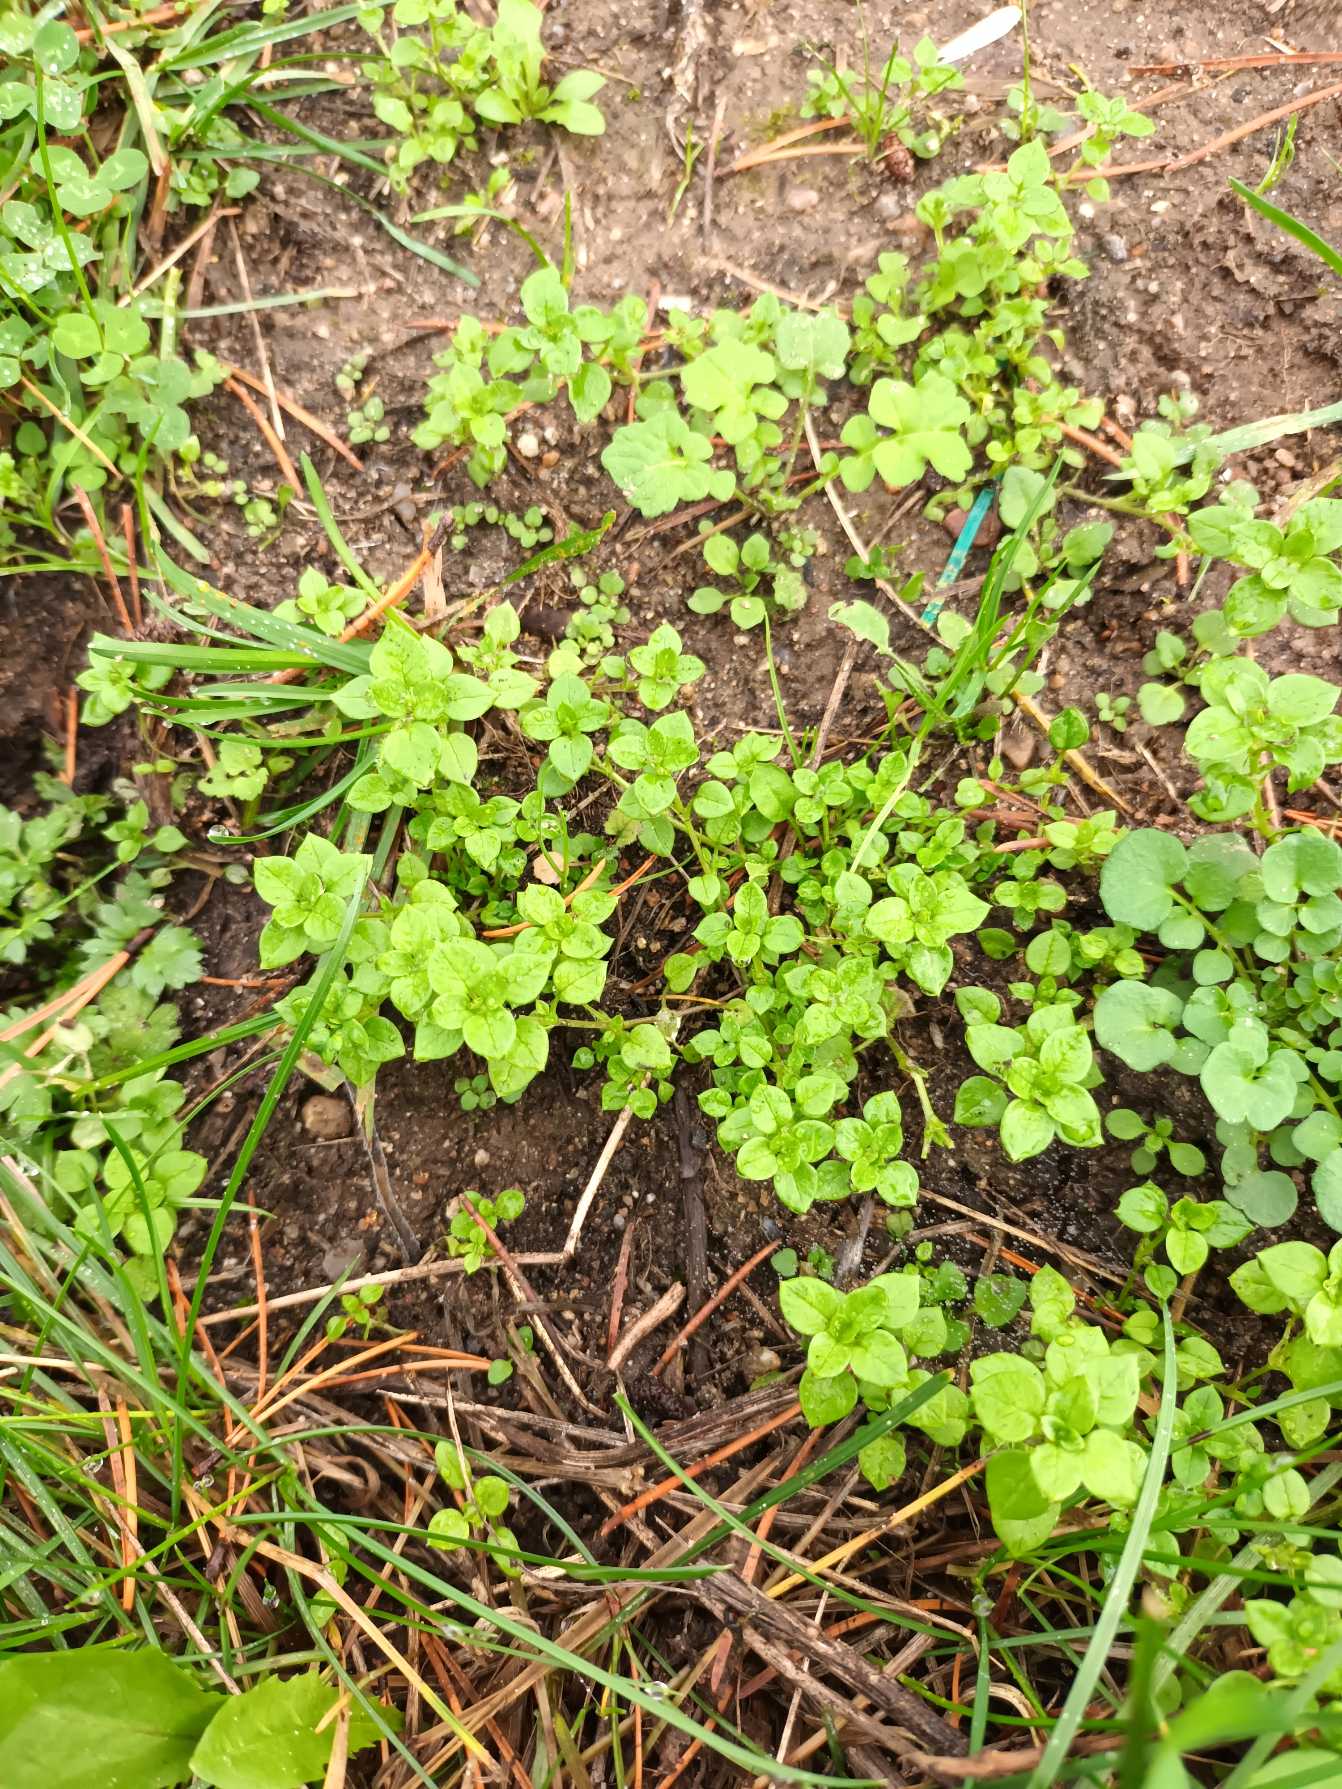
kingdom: Plantae
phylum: Tracheophyta
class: Magnoliopsida
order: Caryophyllales
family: Caryophyllaceae
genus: Stellaria
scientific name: Stellaria media
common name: Almindelig fuglegræs
